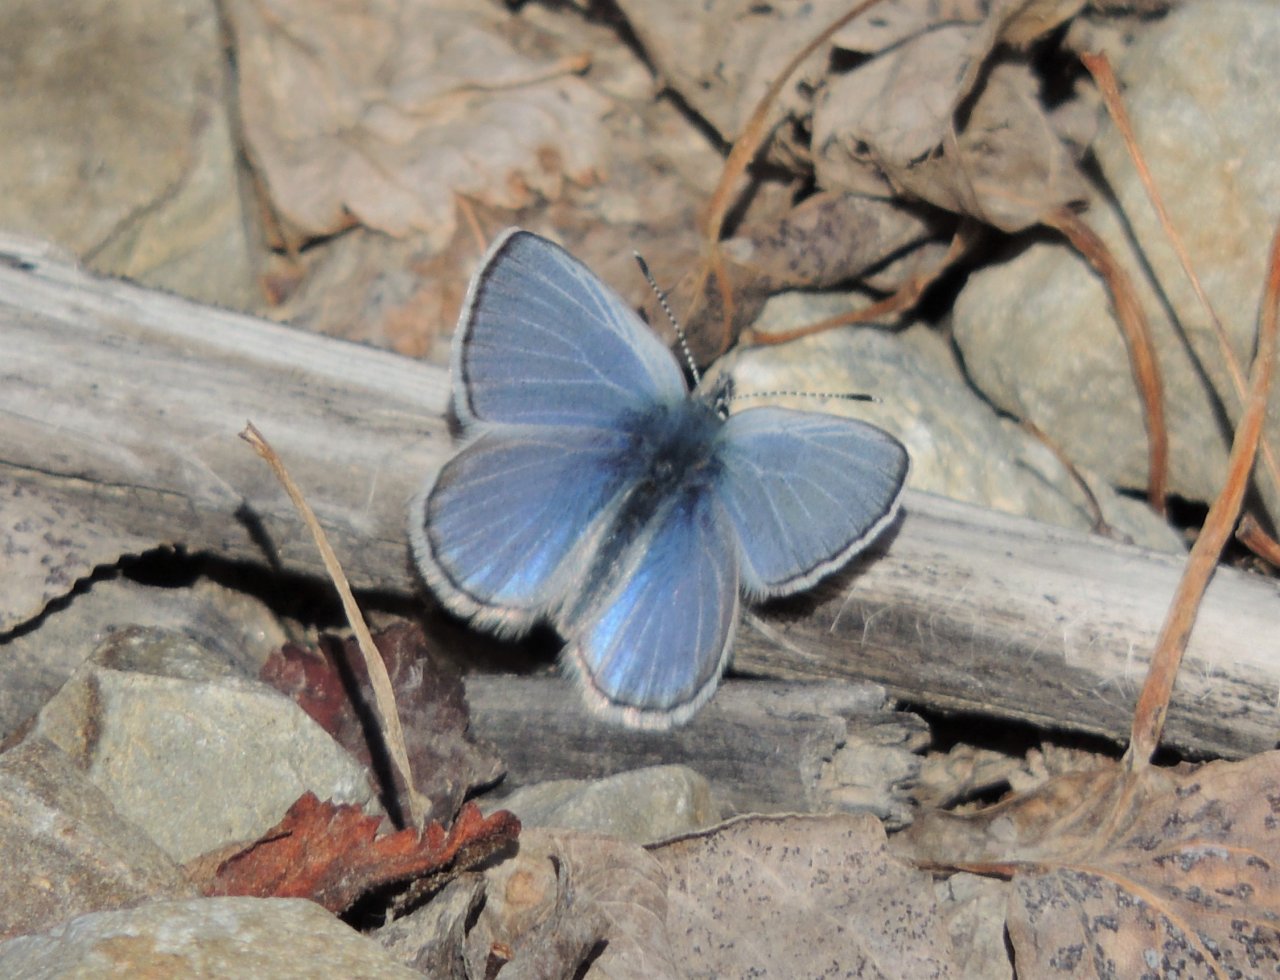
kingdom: Animalia
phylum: Arthropoda
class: Insecta
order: Lepidoptera
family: Lycaenidae
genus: Glaucopsyche
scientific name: Glaucopsyche lygdamus
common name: Silvery Blue
